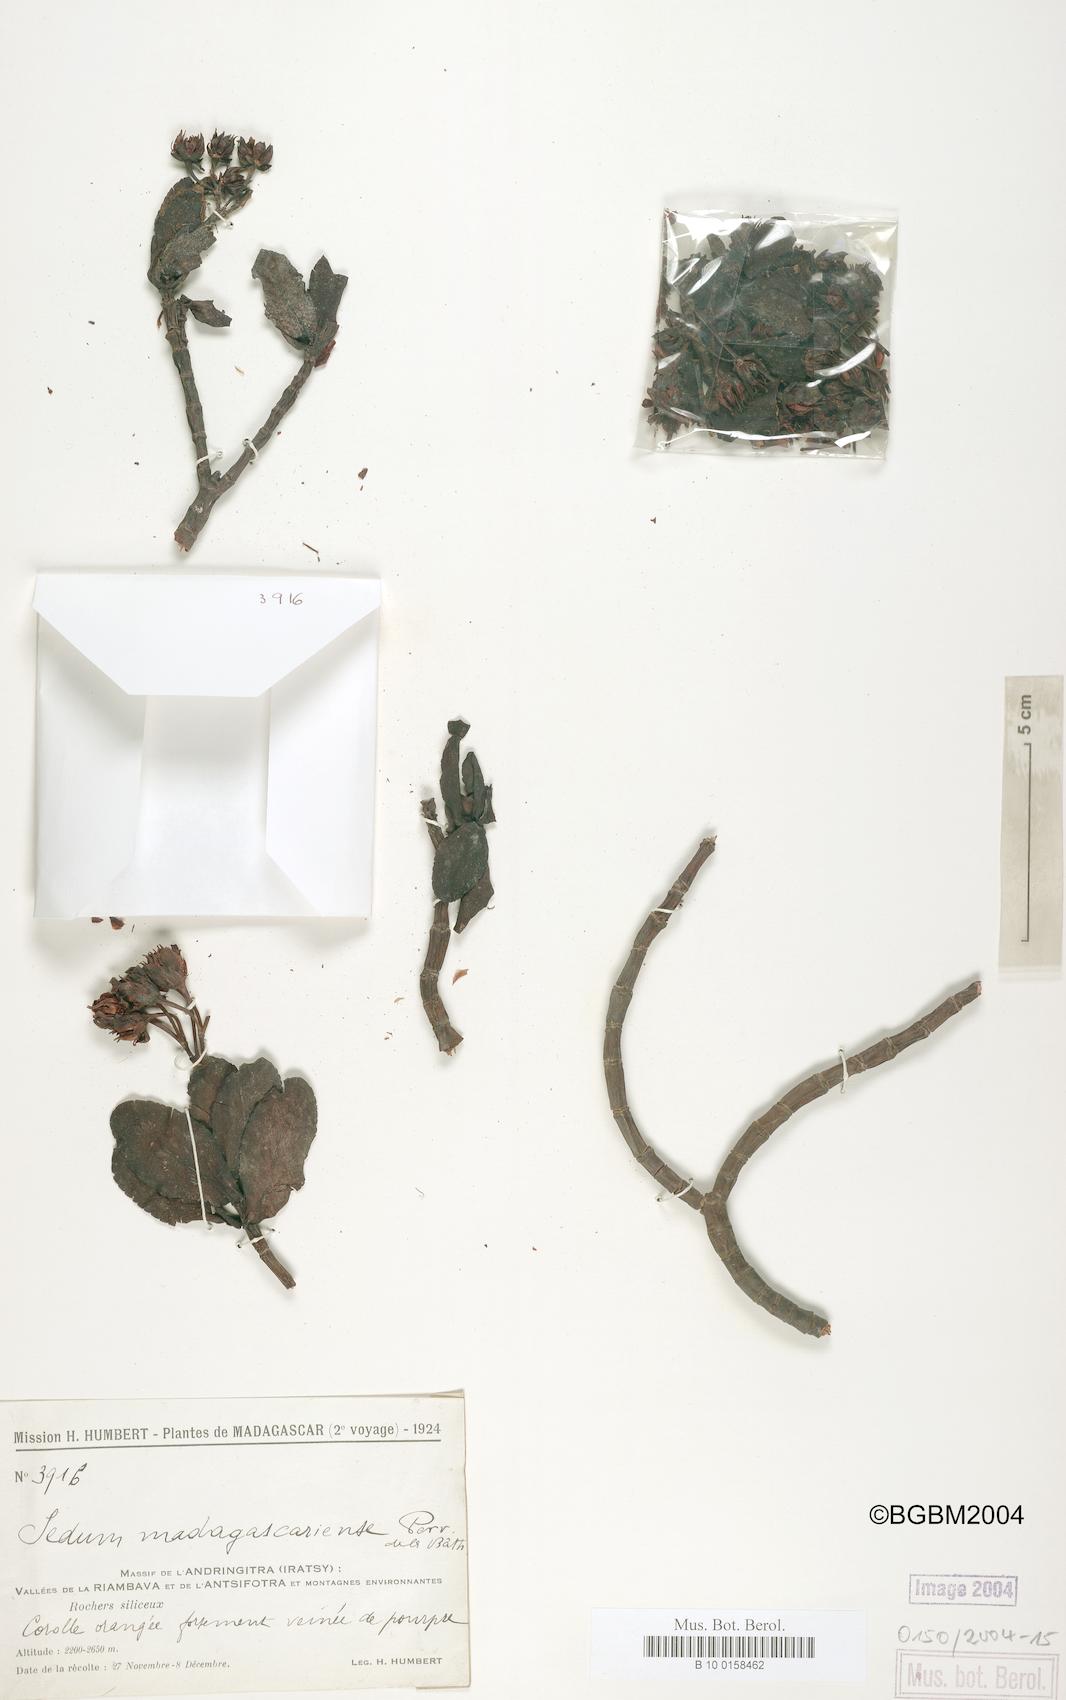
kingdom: Plantae
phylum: Tracheophyta
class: Magnoliopsida
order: Saxifragales
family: Crassulaceae
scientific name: Crassulaceae
